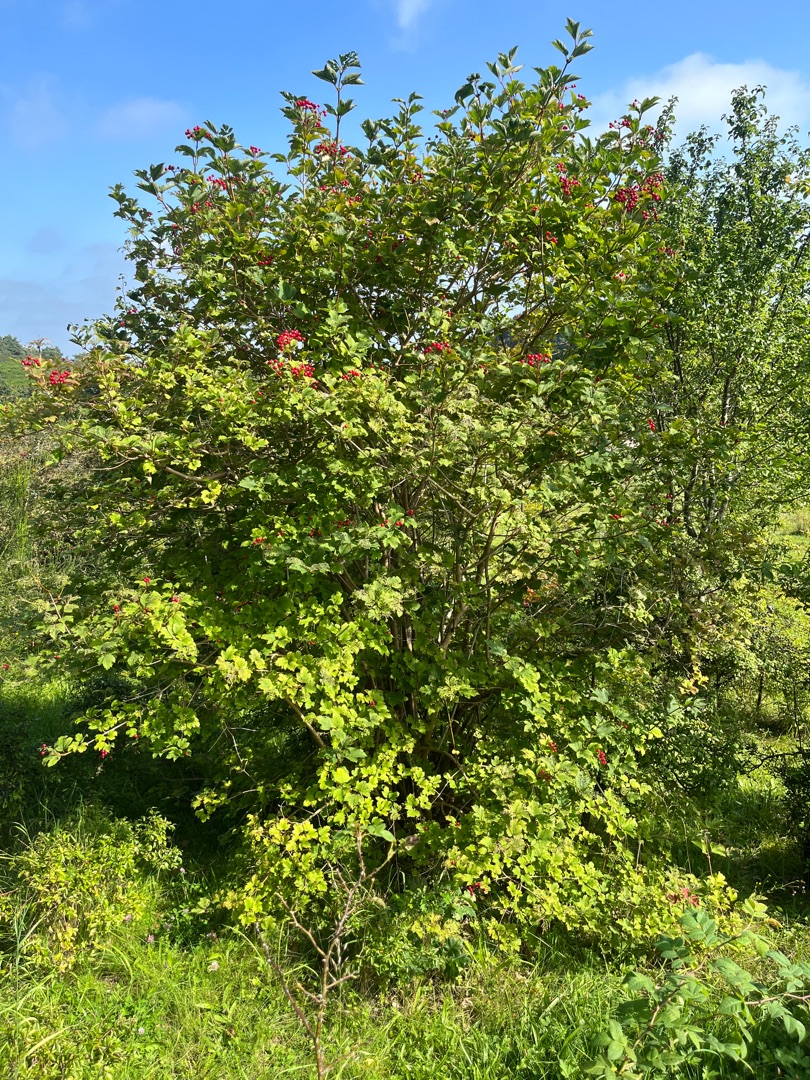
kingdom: Plantae
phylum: Tracheophyta
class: Magnoliopsida
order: Dipsacales
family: Viburnaceae
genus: Viburnum
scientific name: Viburnum opulus
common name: Kvalkved
